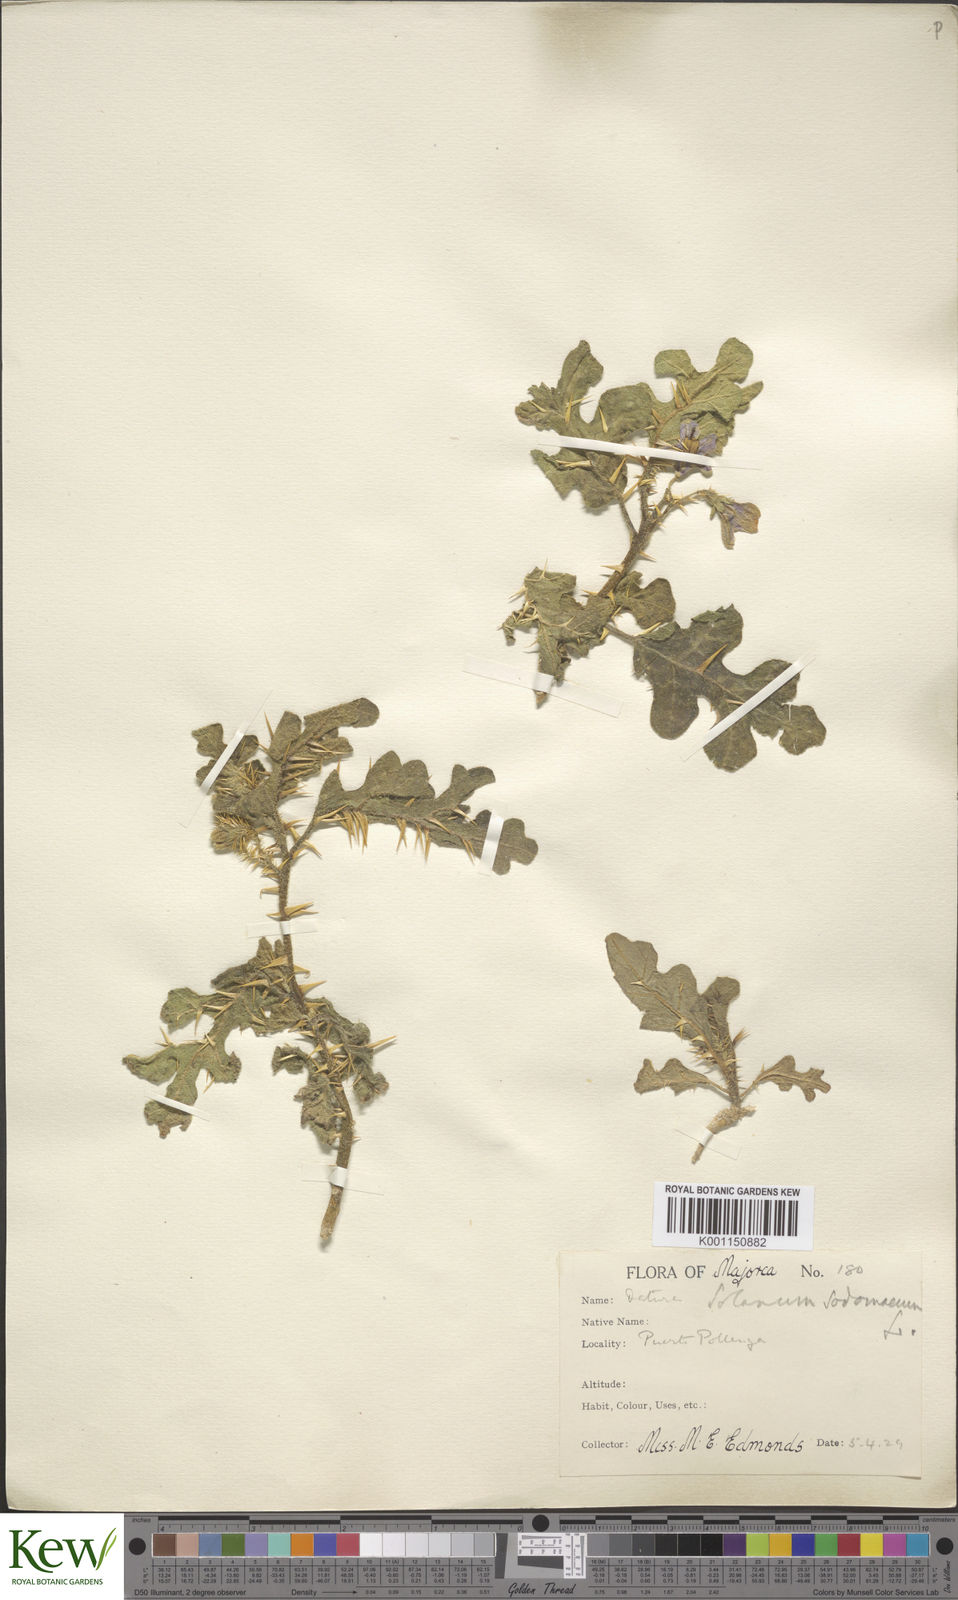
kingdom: Plantae
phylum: Tracheophyta
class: Magnoliopsida
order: Solanales
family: Solanaceae
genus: Solanum
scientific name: Solanum anguivi
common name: Forest bitterberry
